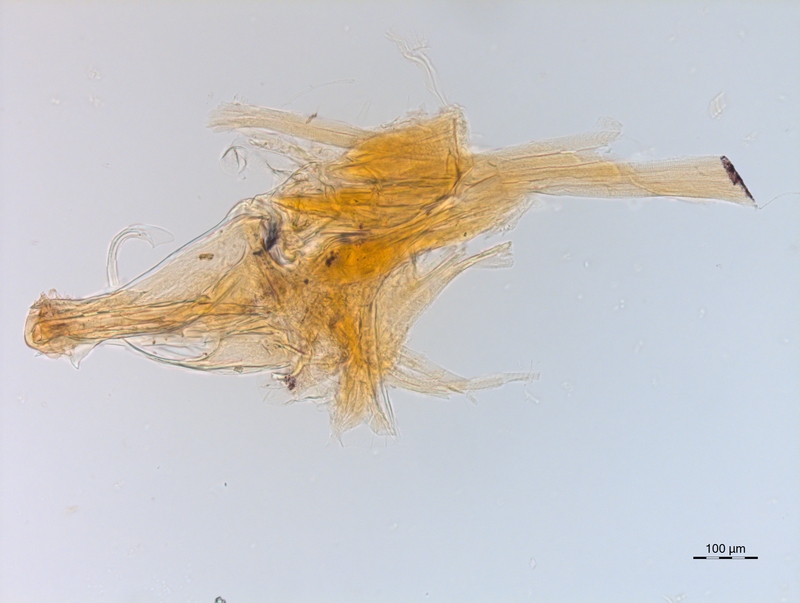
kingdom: Animalia
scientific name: Animalia
